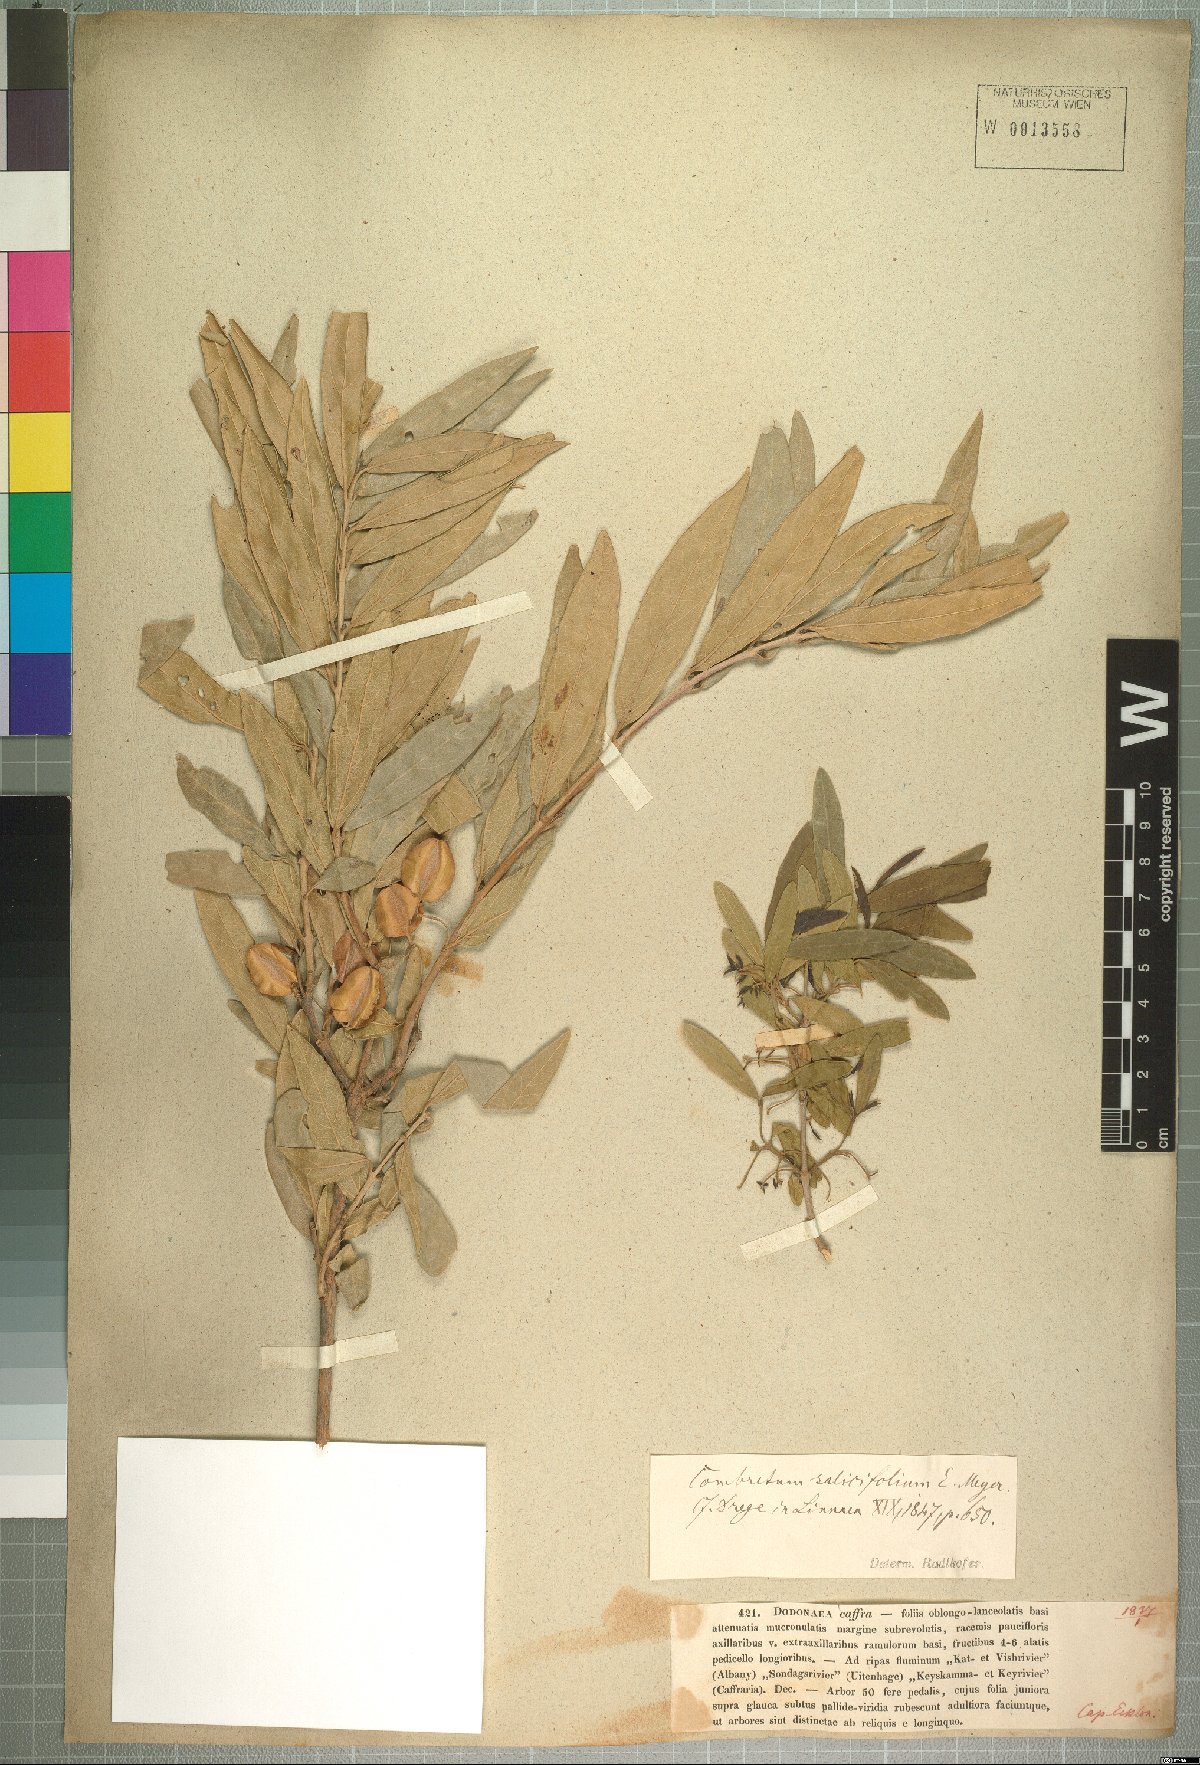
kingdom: Plantae
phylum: Tracheophyta
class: Magnoliopsida
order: Myrtales
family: Combretaceae
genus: Combretum
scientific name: Combretum caffrum
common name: Cape bushwillow
